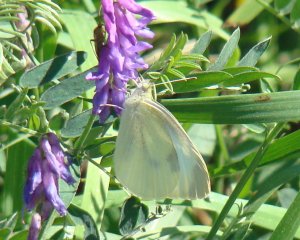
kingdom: Animalia
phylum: Arthropoda
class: Insecta
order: Lepidoptera
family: Pieridae
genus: Pieris
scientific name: Pieris rapae
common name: Cabbage White
